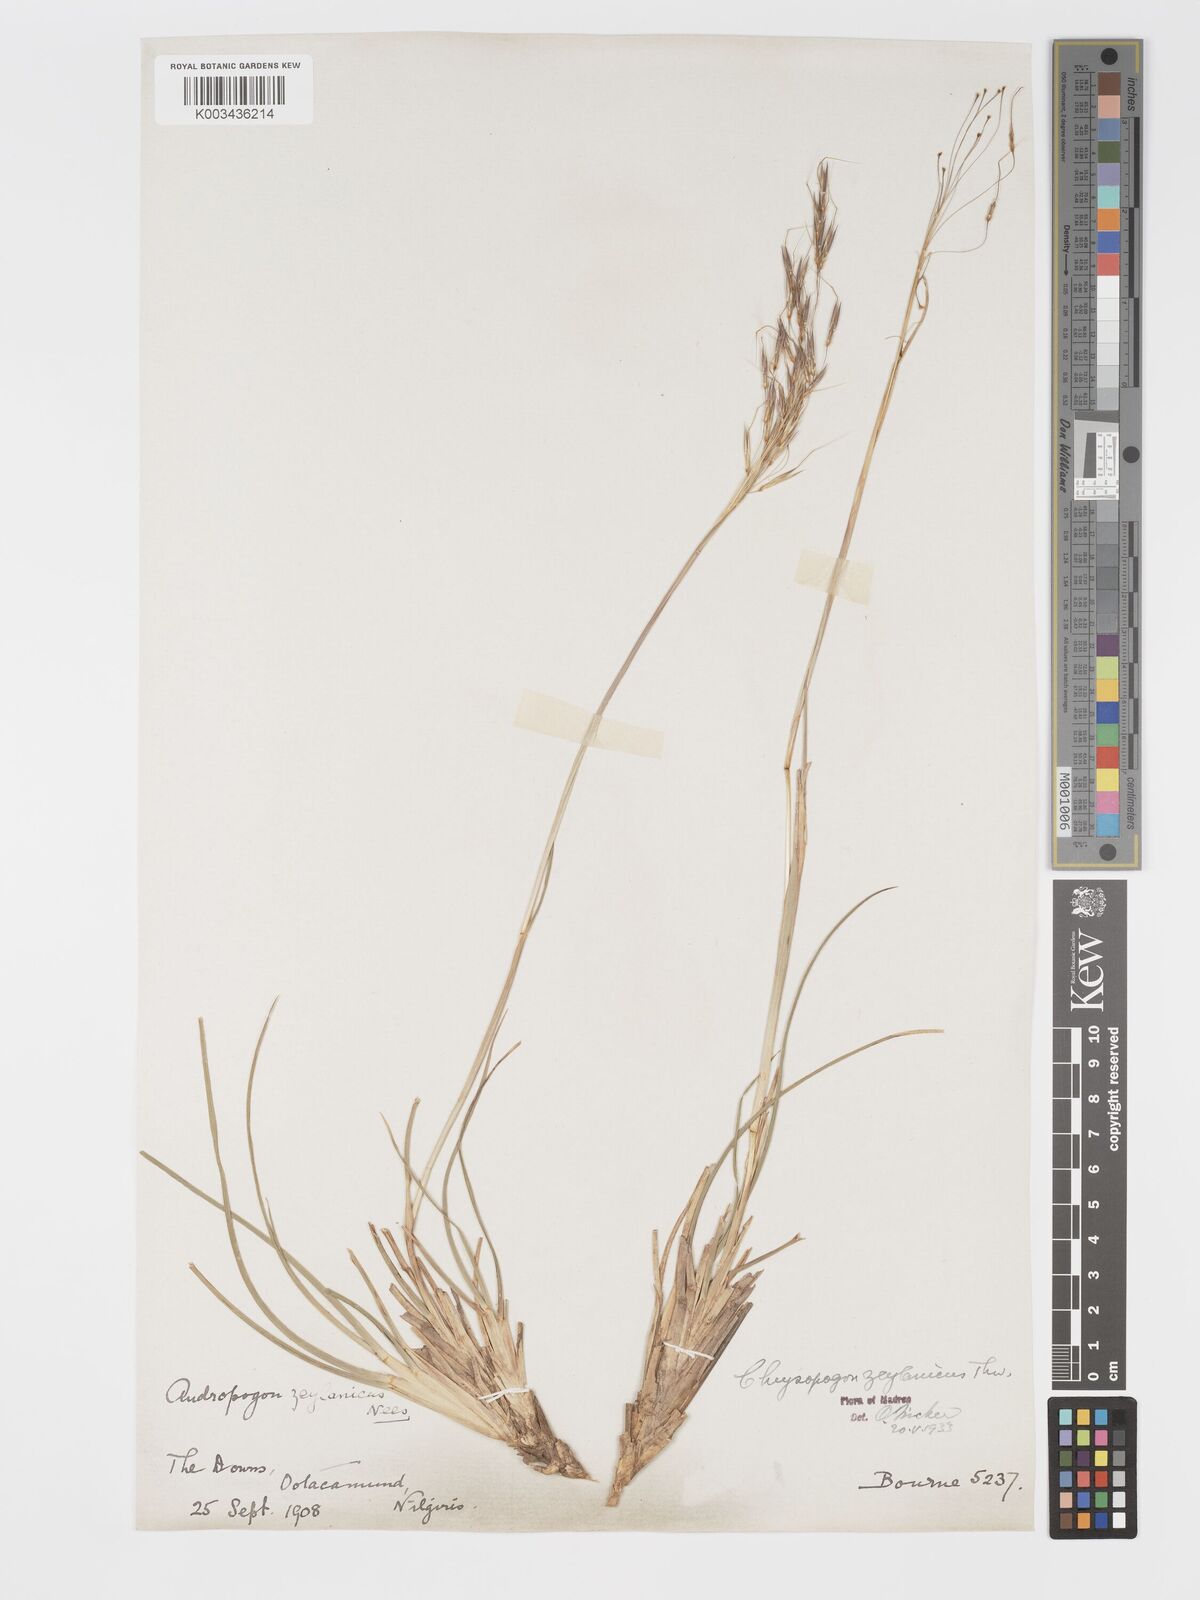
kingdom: Plantae
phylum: Tracheophyta
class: Liliopsida
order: Poales
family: Poaceae
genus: Chrysopogon
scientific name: Chrysopogon nodulibarbis
